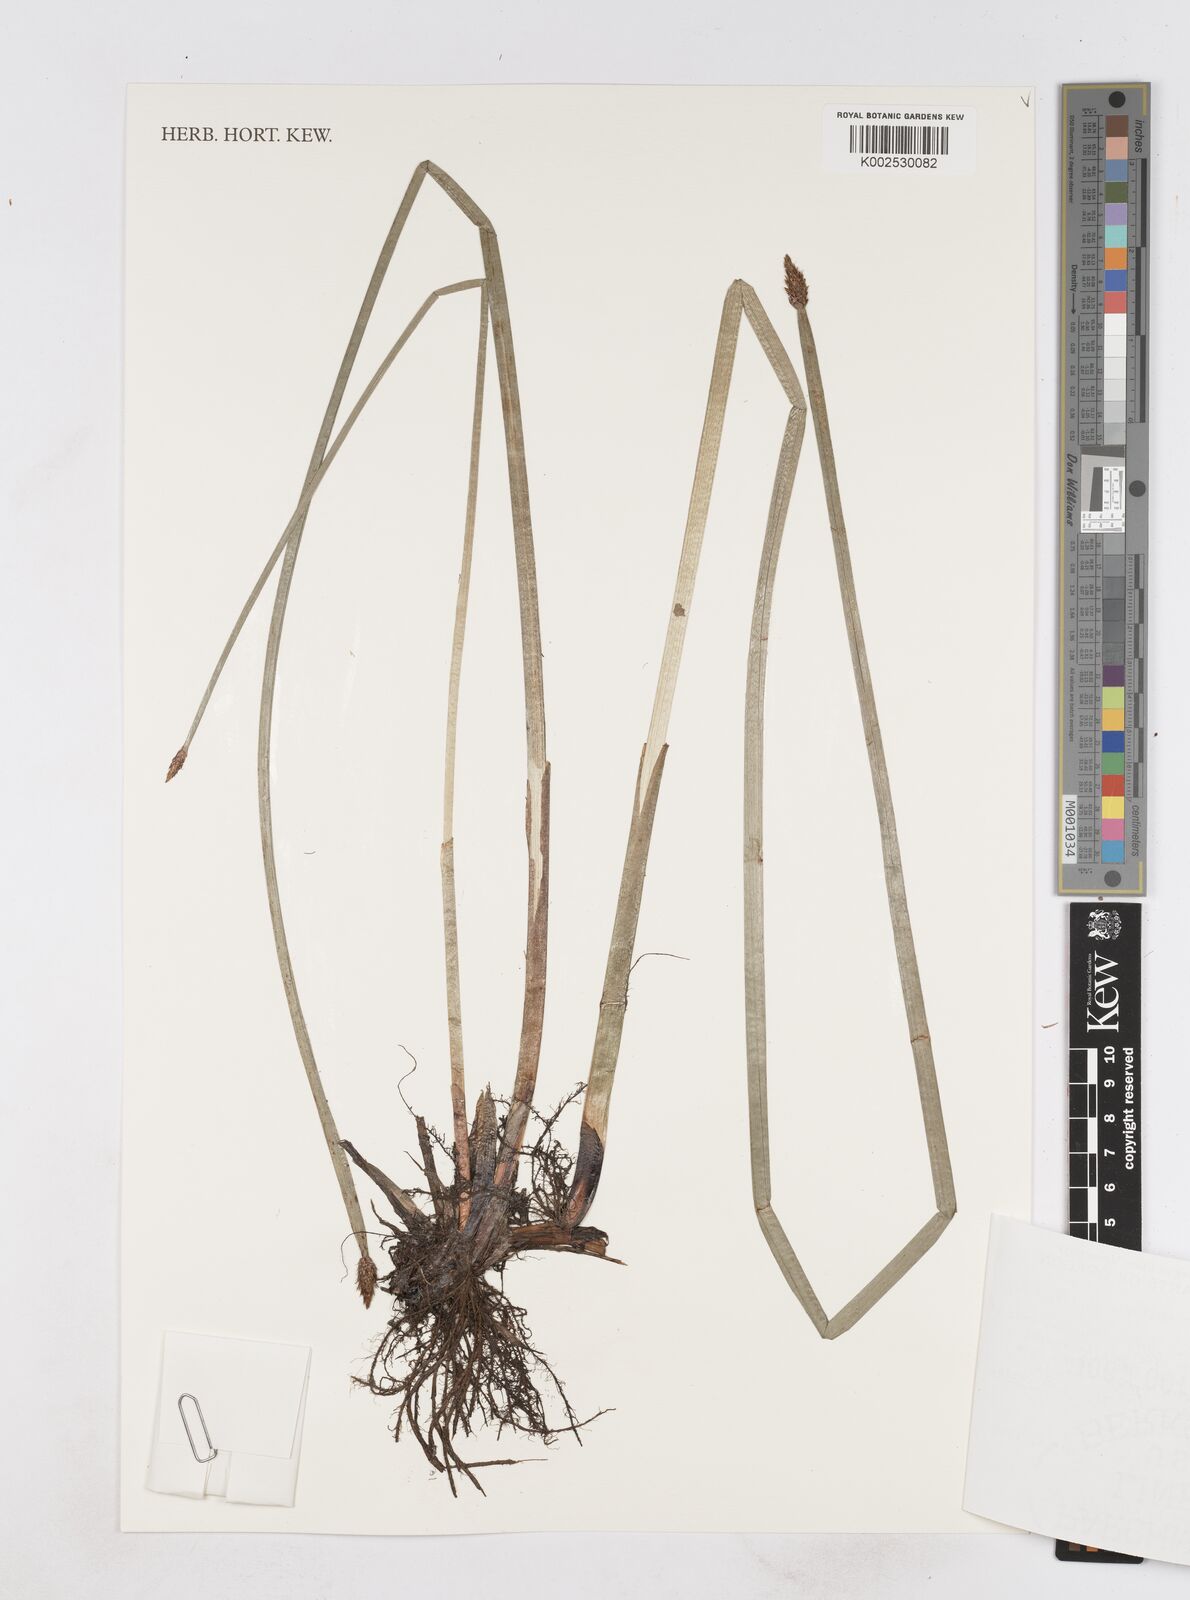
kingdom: Plantae
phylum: Tracheophyta
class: Liliopsida
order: Poales
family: Cyperaceae
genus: Eleocharis
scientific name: Eleocharis palustris
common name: Common spike-rush
